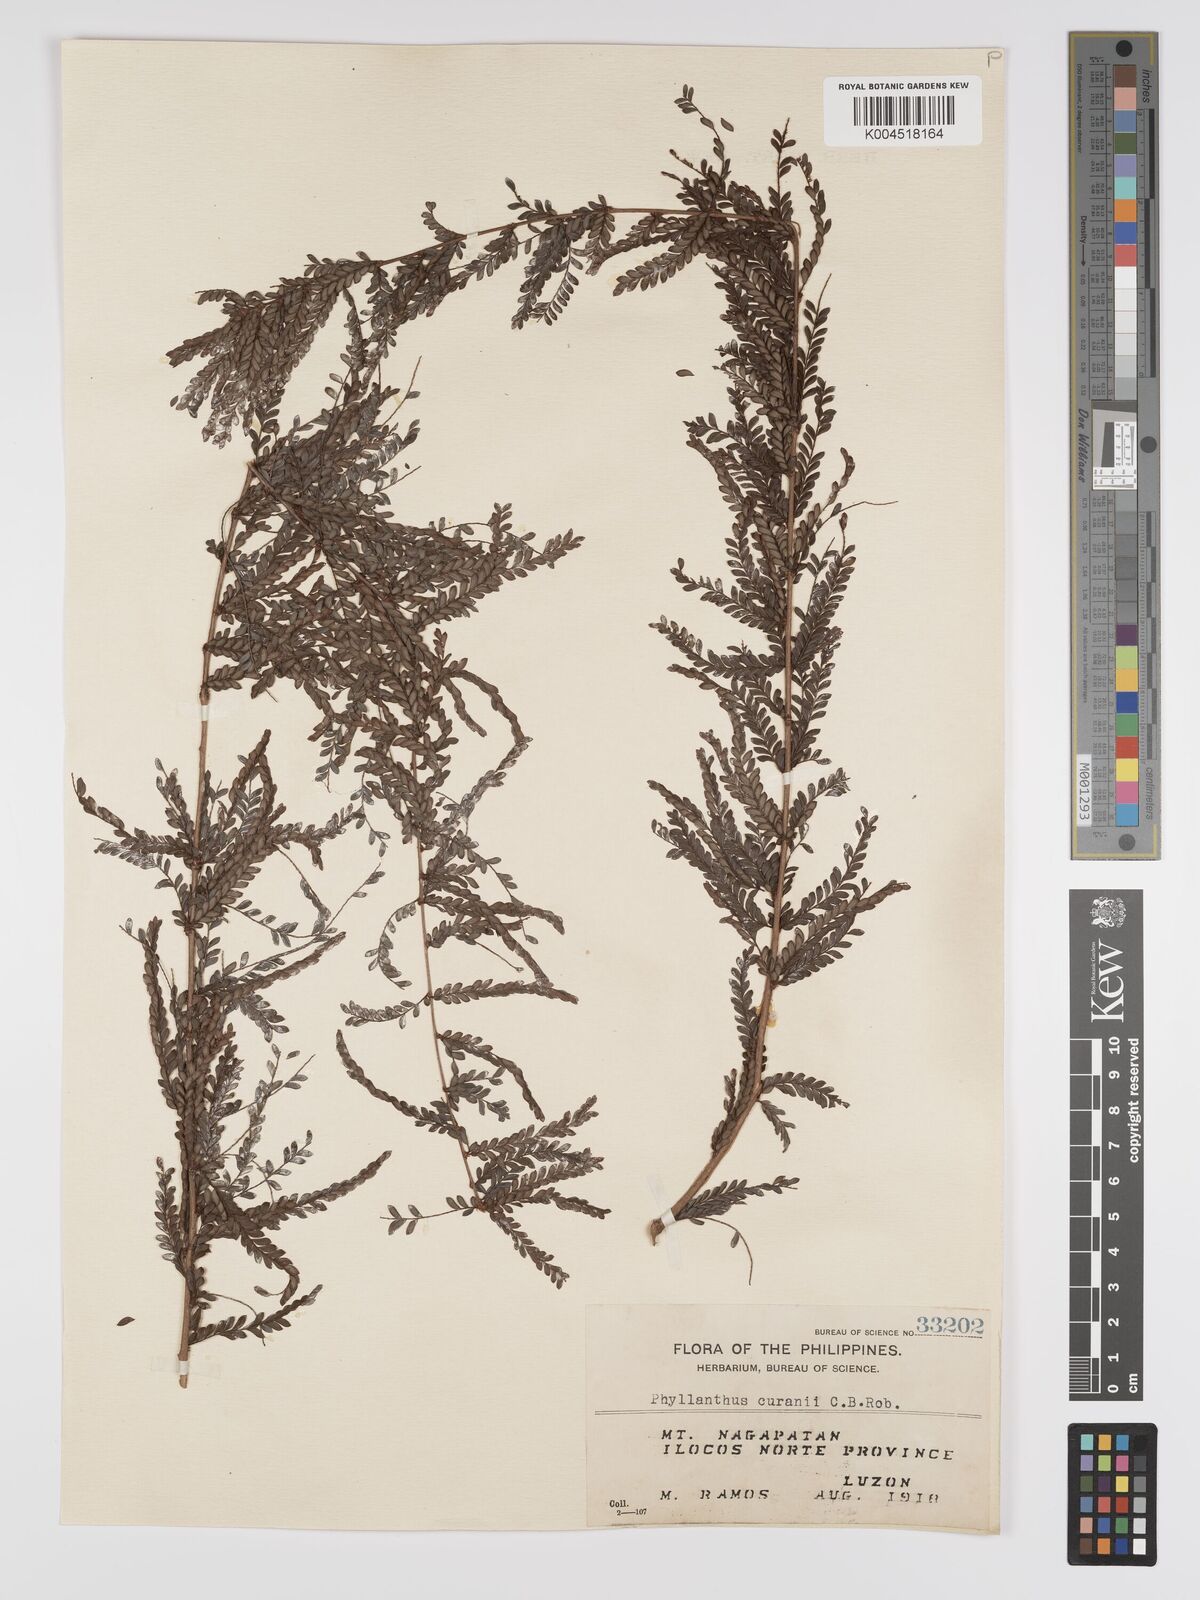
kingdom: Plantae
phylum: Tracheophyta
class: Magnoliopsida
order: Malpighiales
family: Phyllanthaceae
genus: Phyllanthus
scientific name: Phyllanthus curranii
